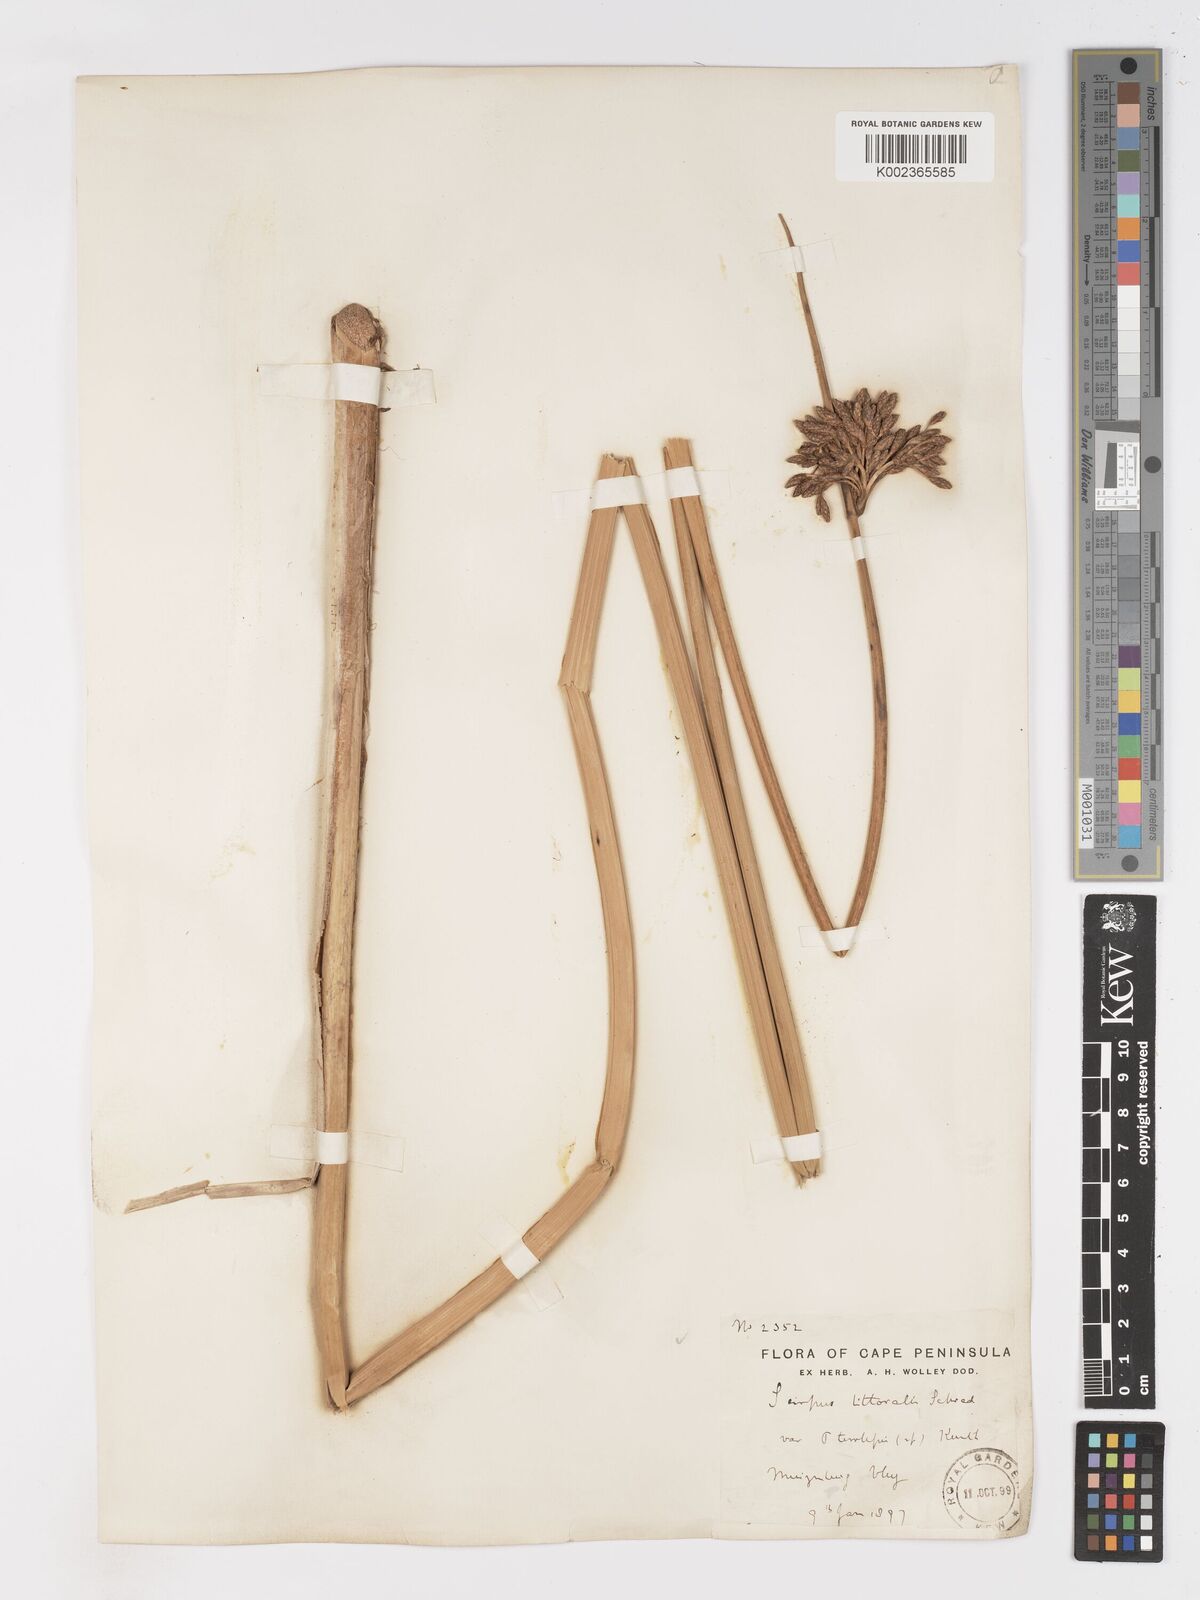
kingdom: Plantae
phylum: Tracheophyta
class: Liliopsida
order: Poales
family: Cyperaceae
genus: Schoenoplectus
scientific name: Schoenoplectus
